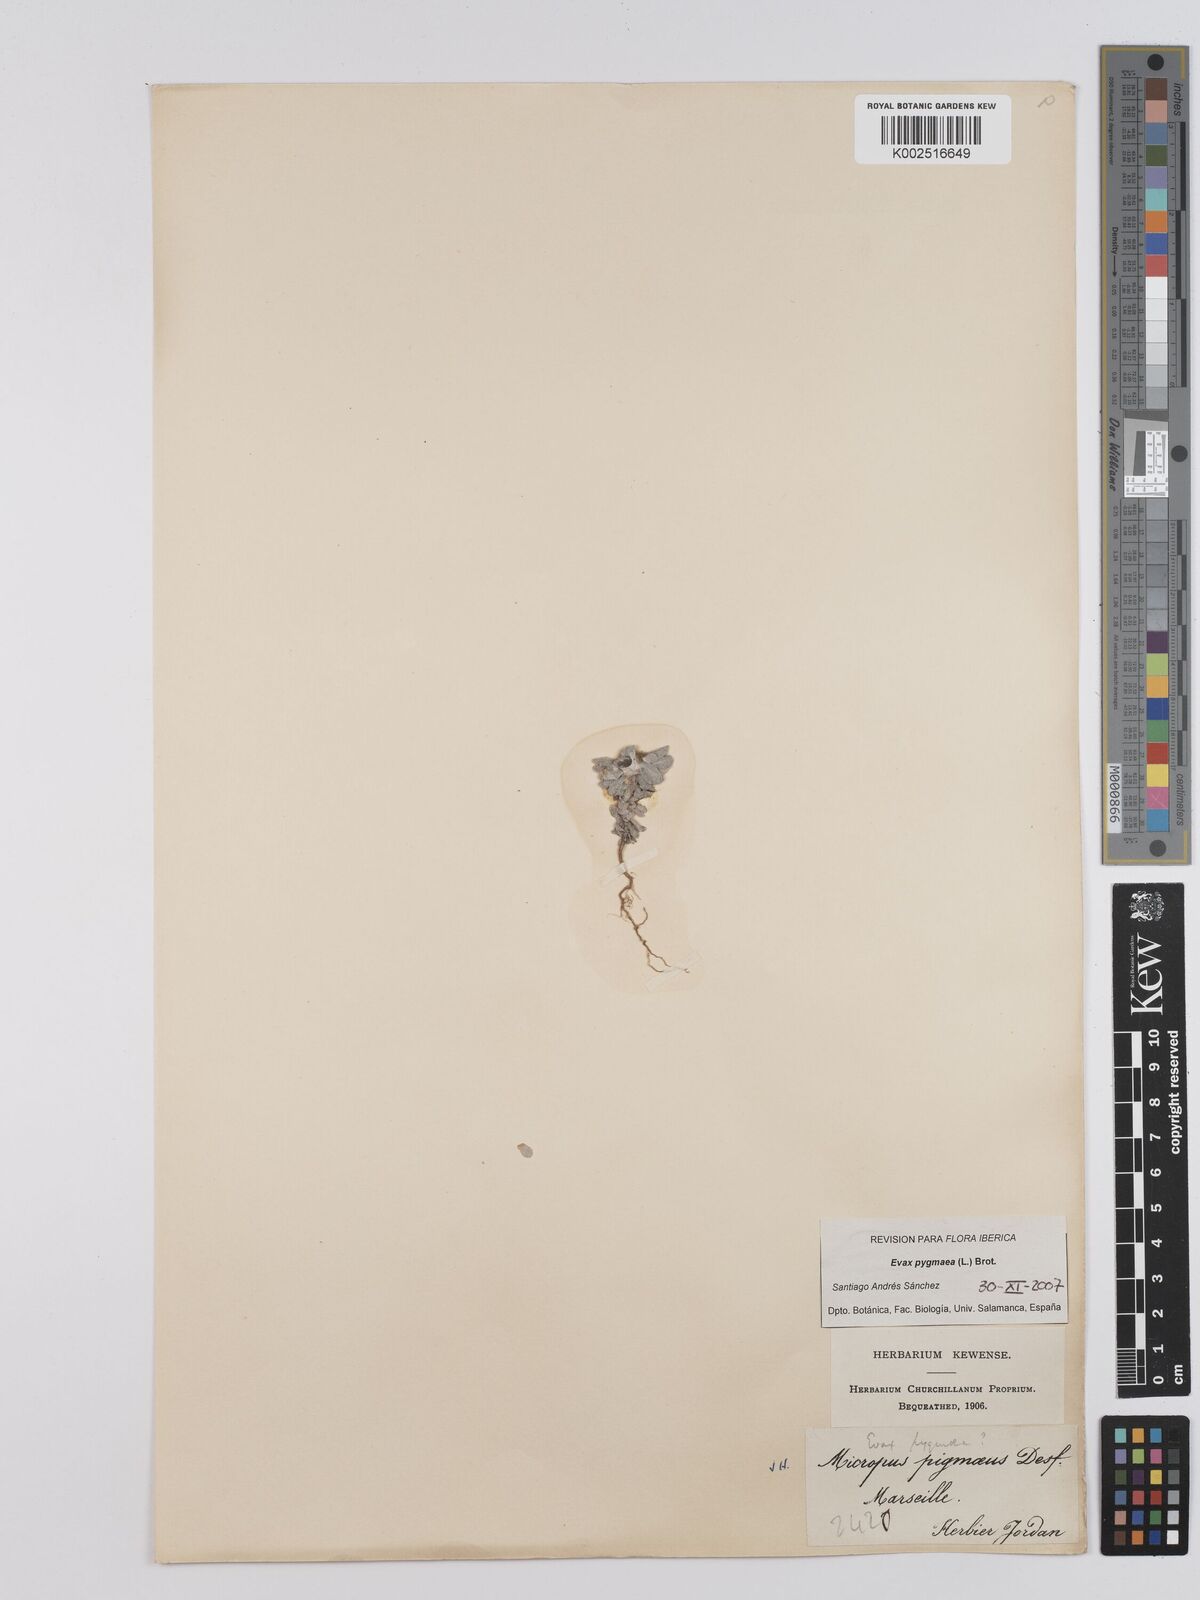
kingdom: Plantae
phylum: Tracheophyta
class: Magnoliopsida
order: Asterales
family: Asteraceae
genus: Filago
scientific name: Filago pygmaea
